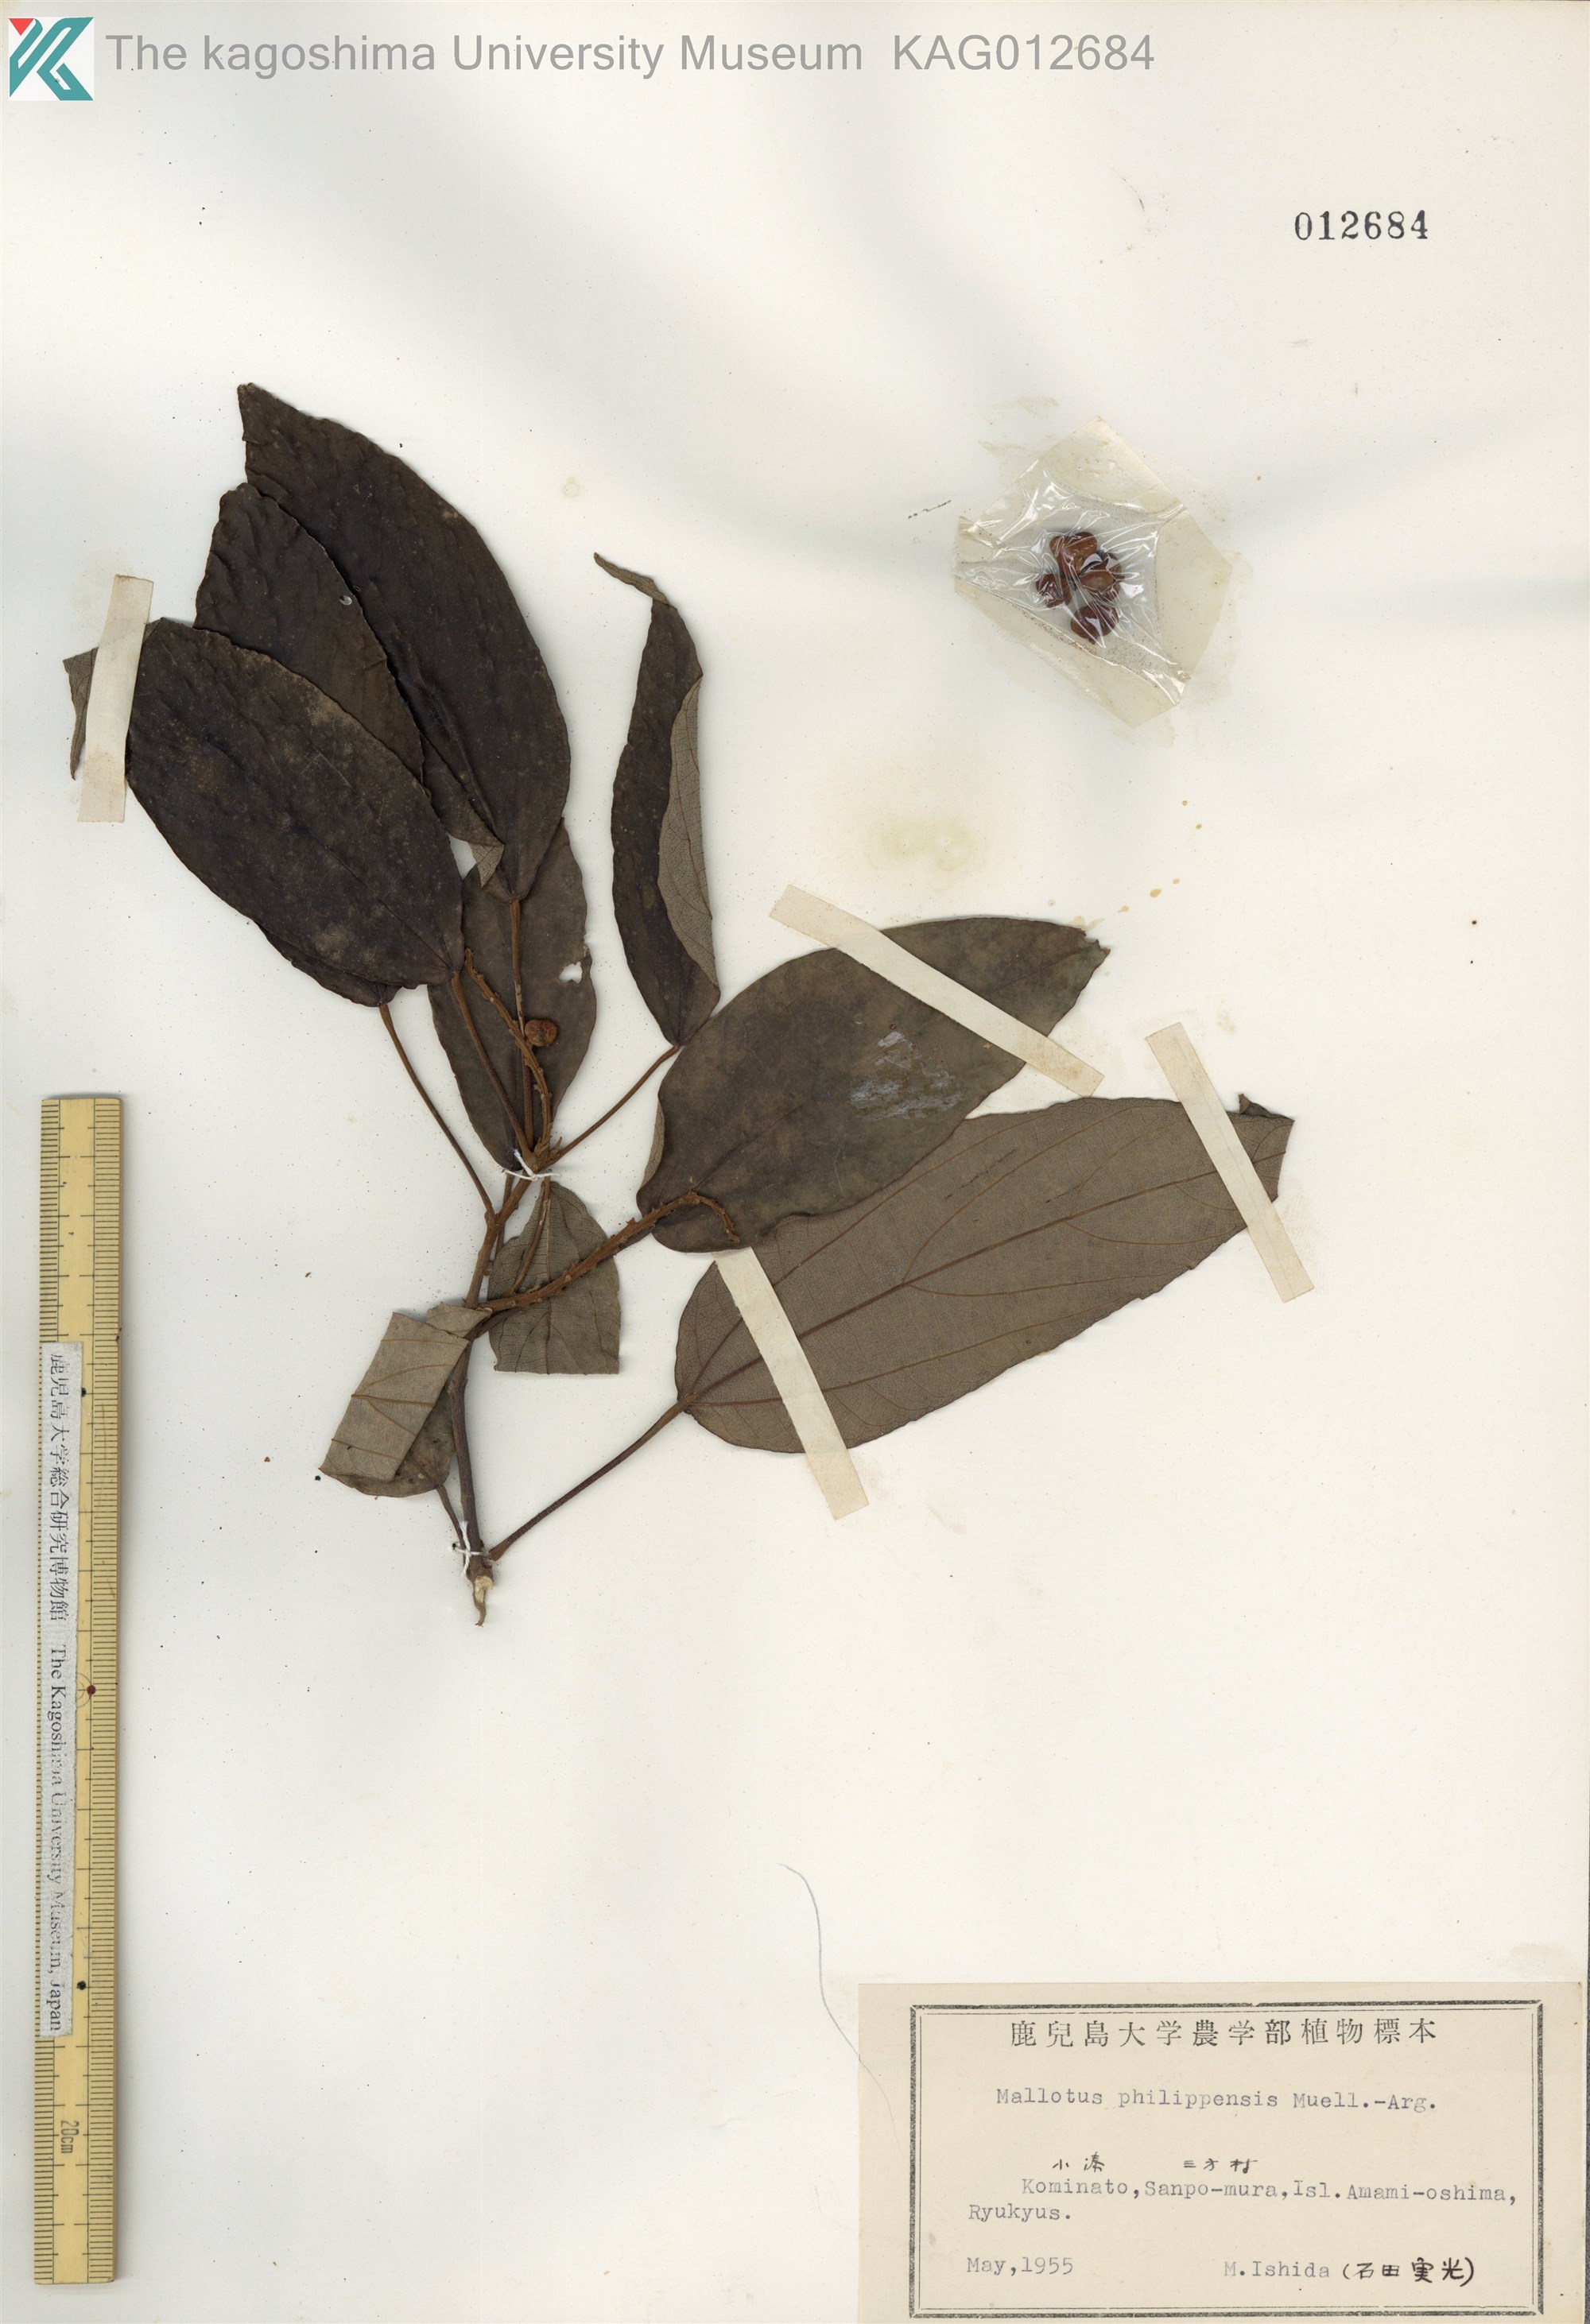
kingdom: Plantae
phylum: Tracheophyta
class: Magnoliopsida
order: Malpighiales
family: Euphorbiaceae
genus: Mallotus
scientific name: Mallotus philippensis
